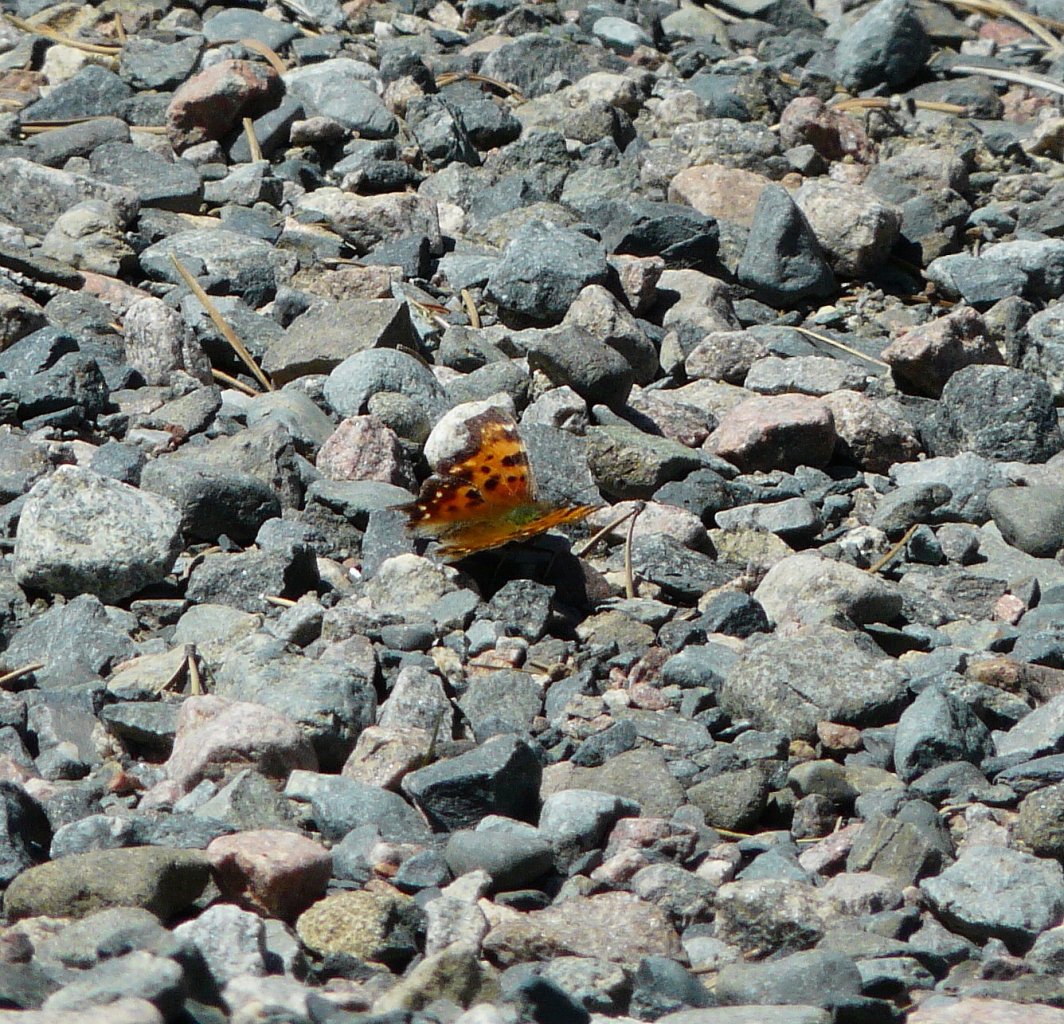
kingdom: Animalia
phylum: Arthropoda
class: Insecta
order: Lepidoptera
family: Nymphalidae
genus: Polygonia
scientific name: Polygonia faunus
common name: Green Comma
